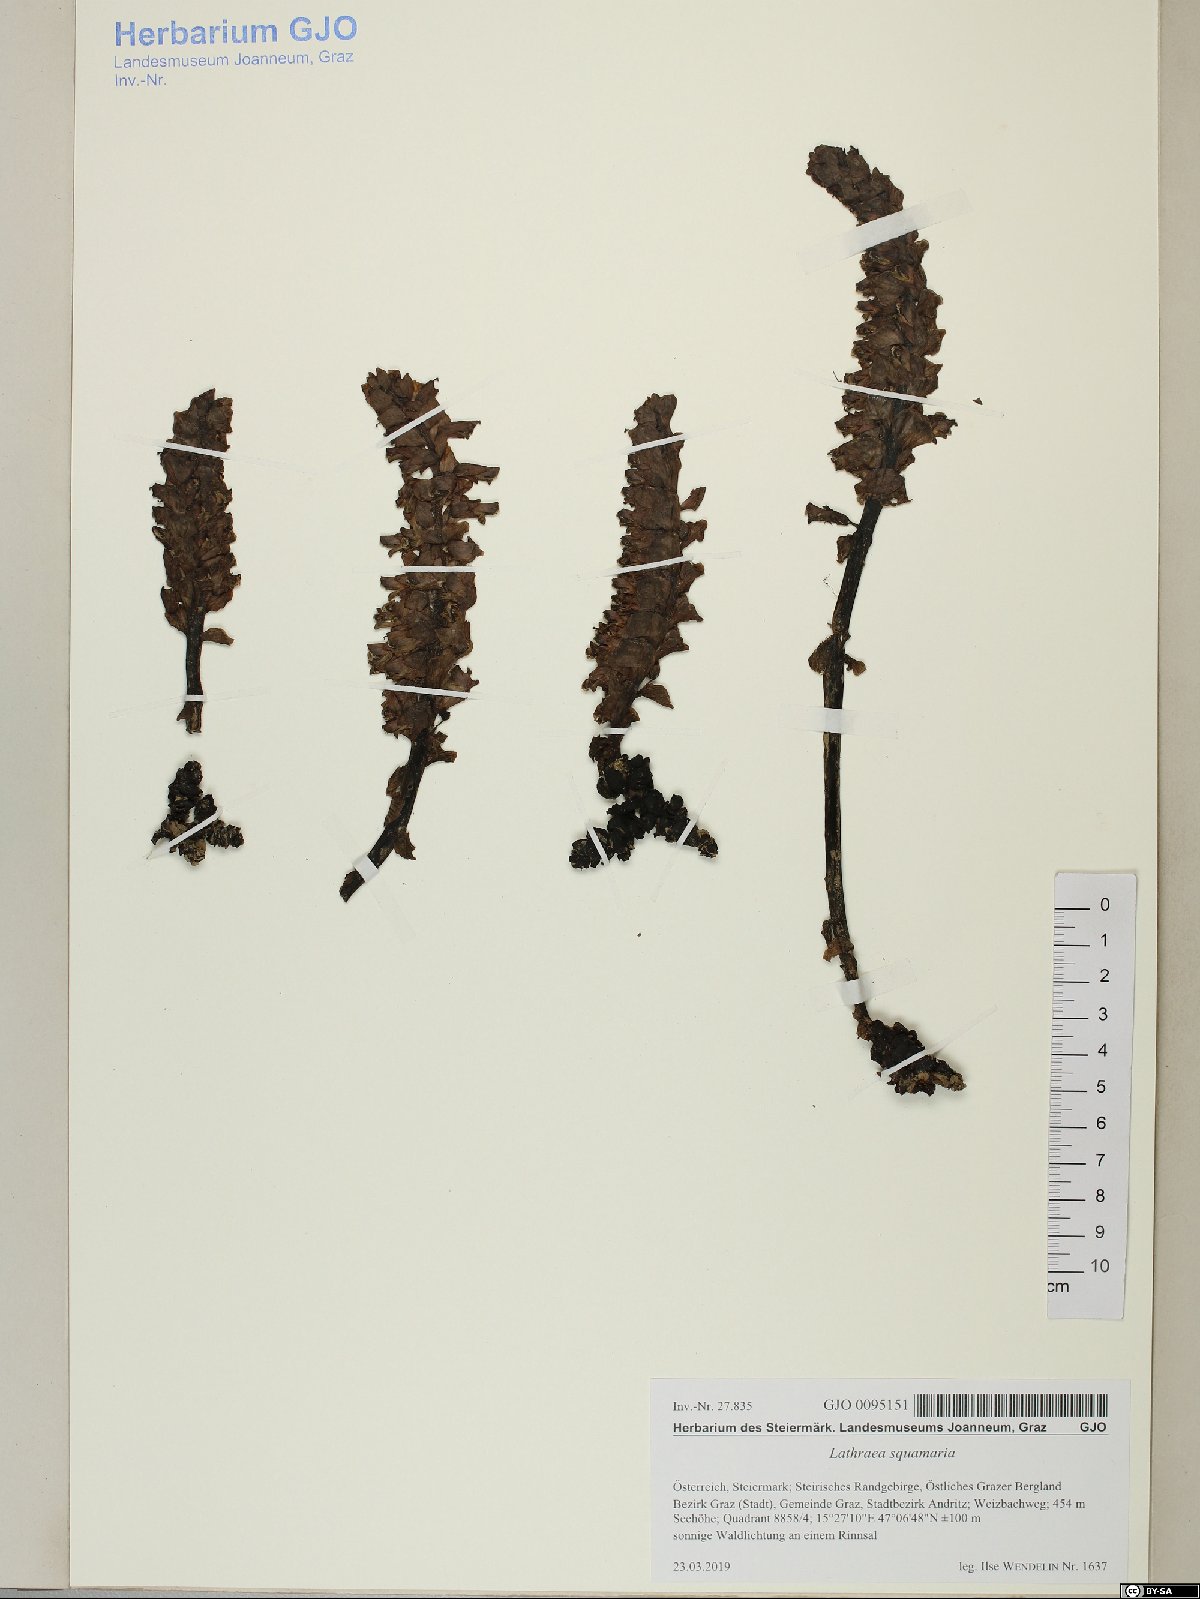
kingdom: Plantae
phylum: Tracheophyta
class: Magnoliopsida
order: Lamiales
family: Orobanchaceae
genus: Lathraea
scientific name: Lathraea squamaria
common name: Toothwort
